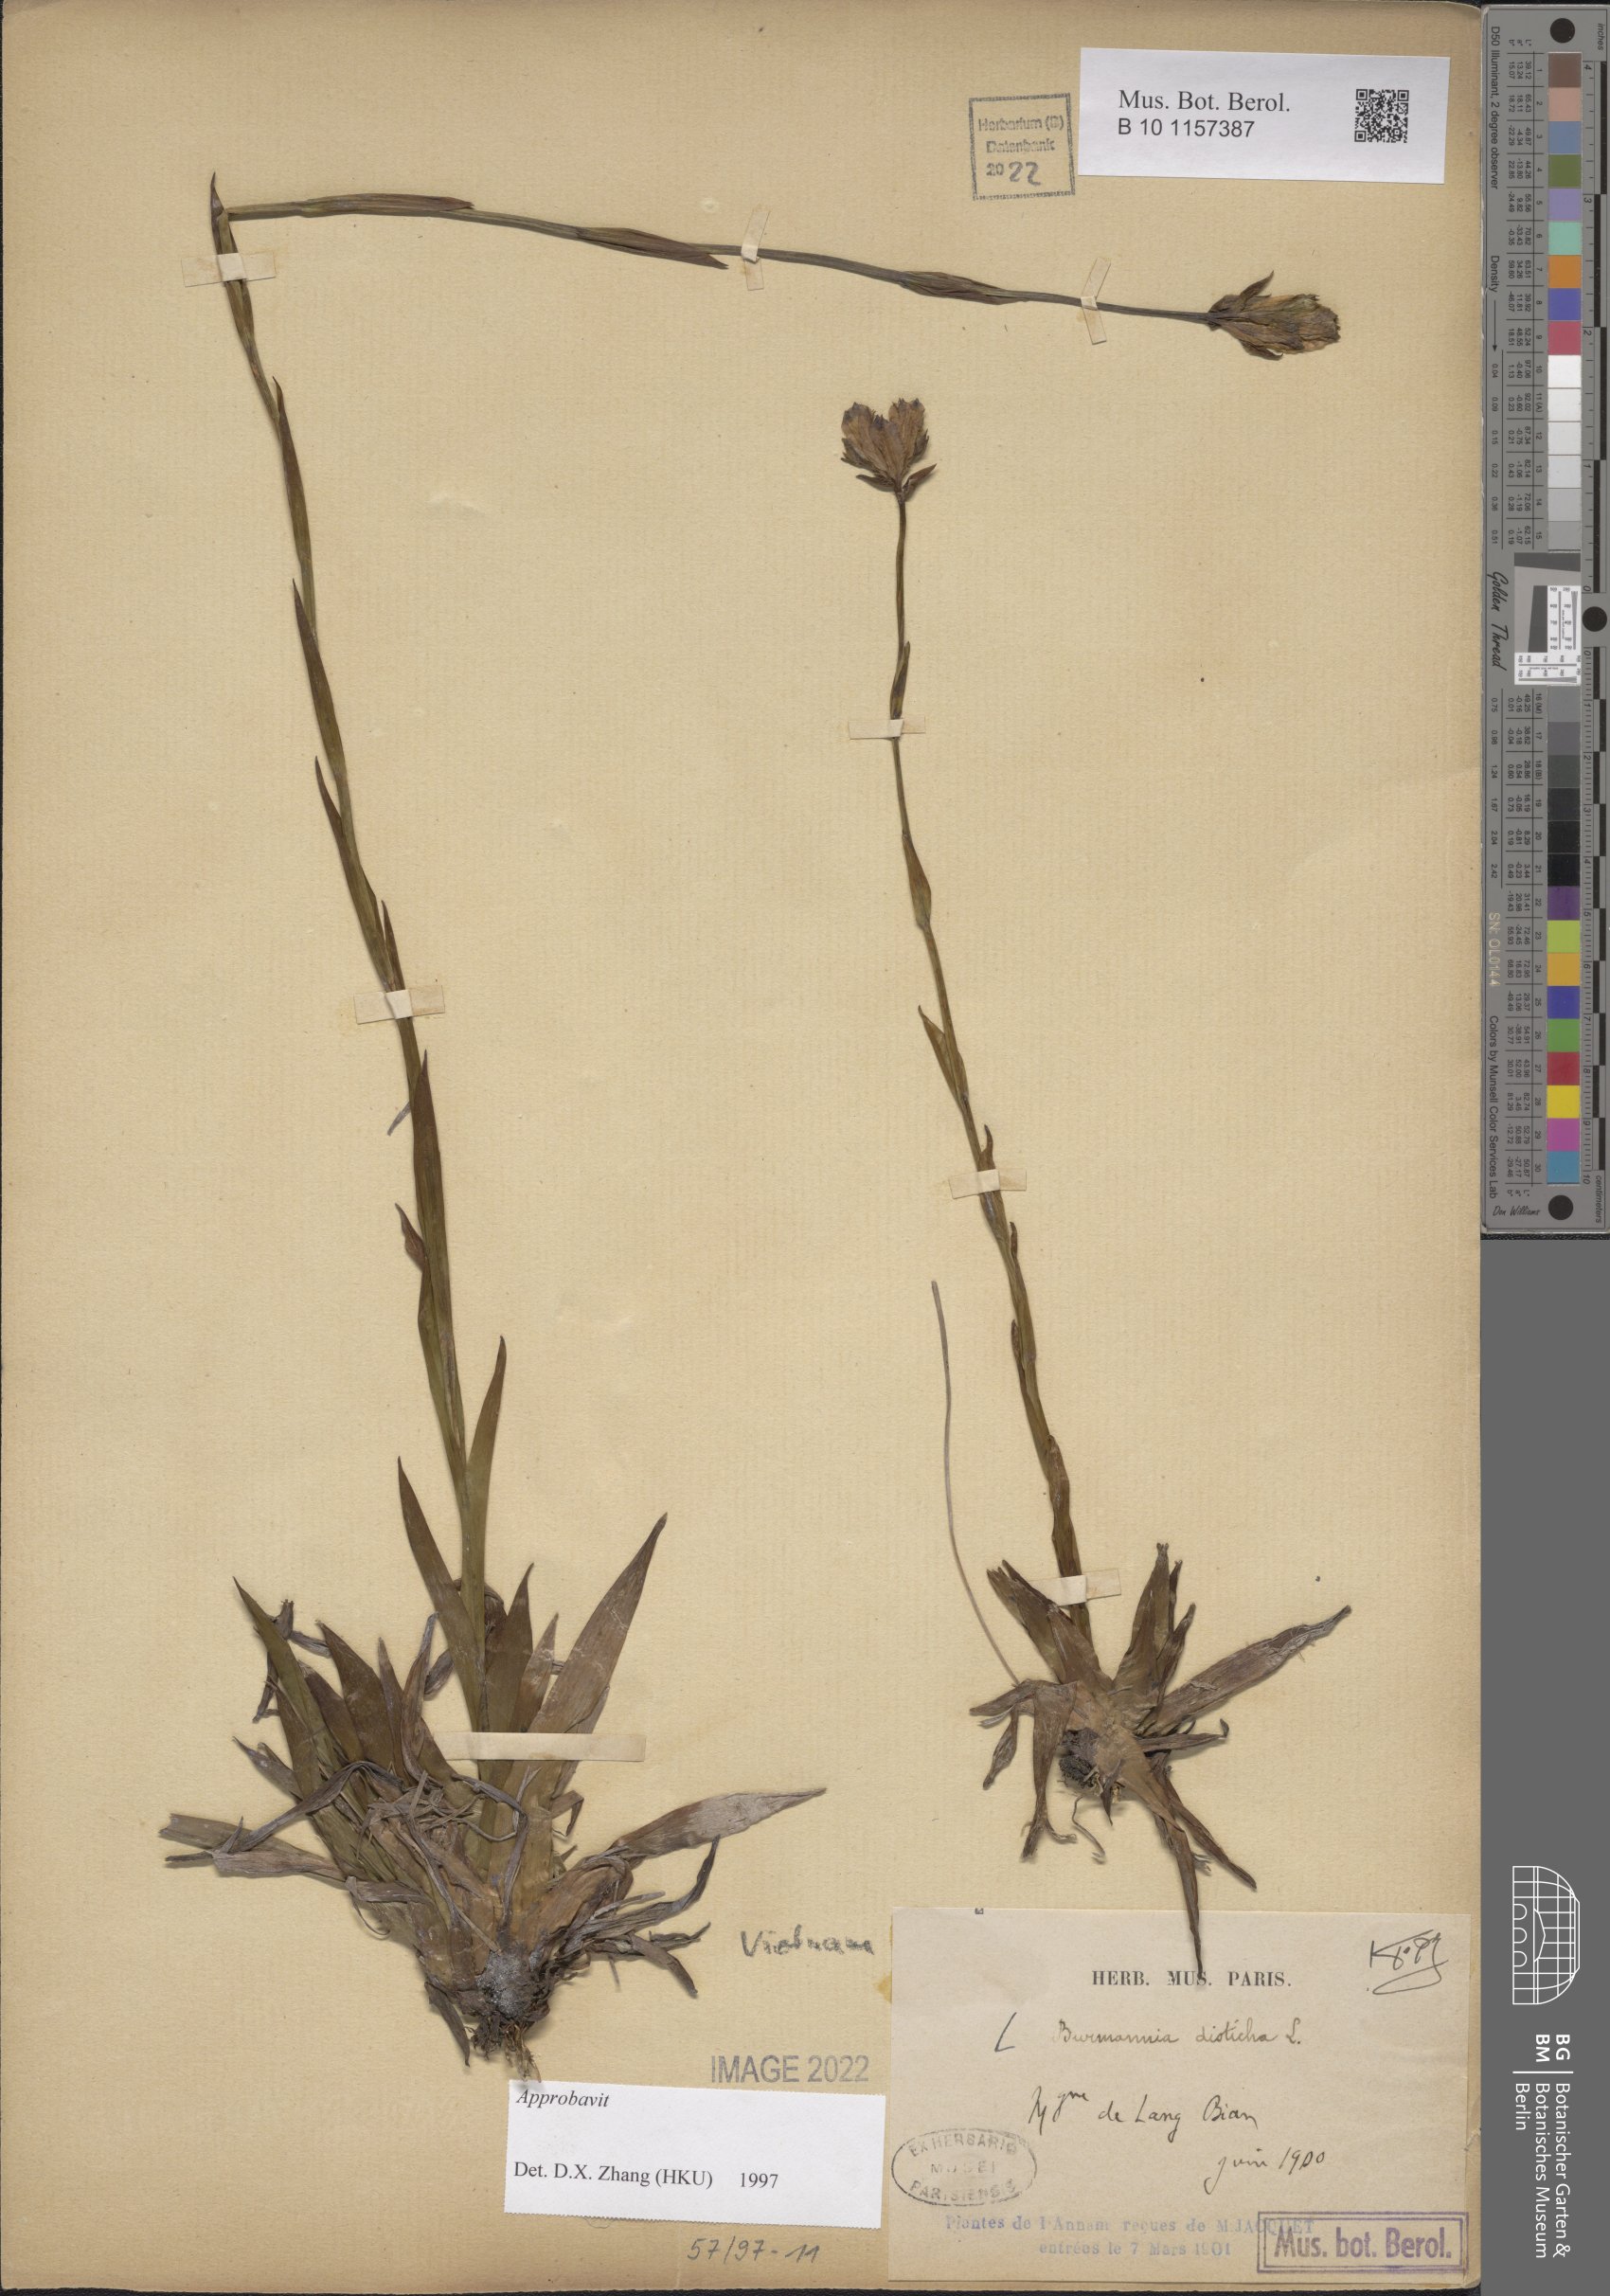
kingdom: Plantae
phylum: Tracheophyta
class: Liliopsida
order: Dioscoreales
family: Burmanniaceae
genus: Burmannia
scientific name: Burmannia disticha
